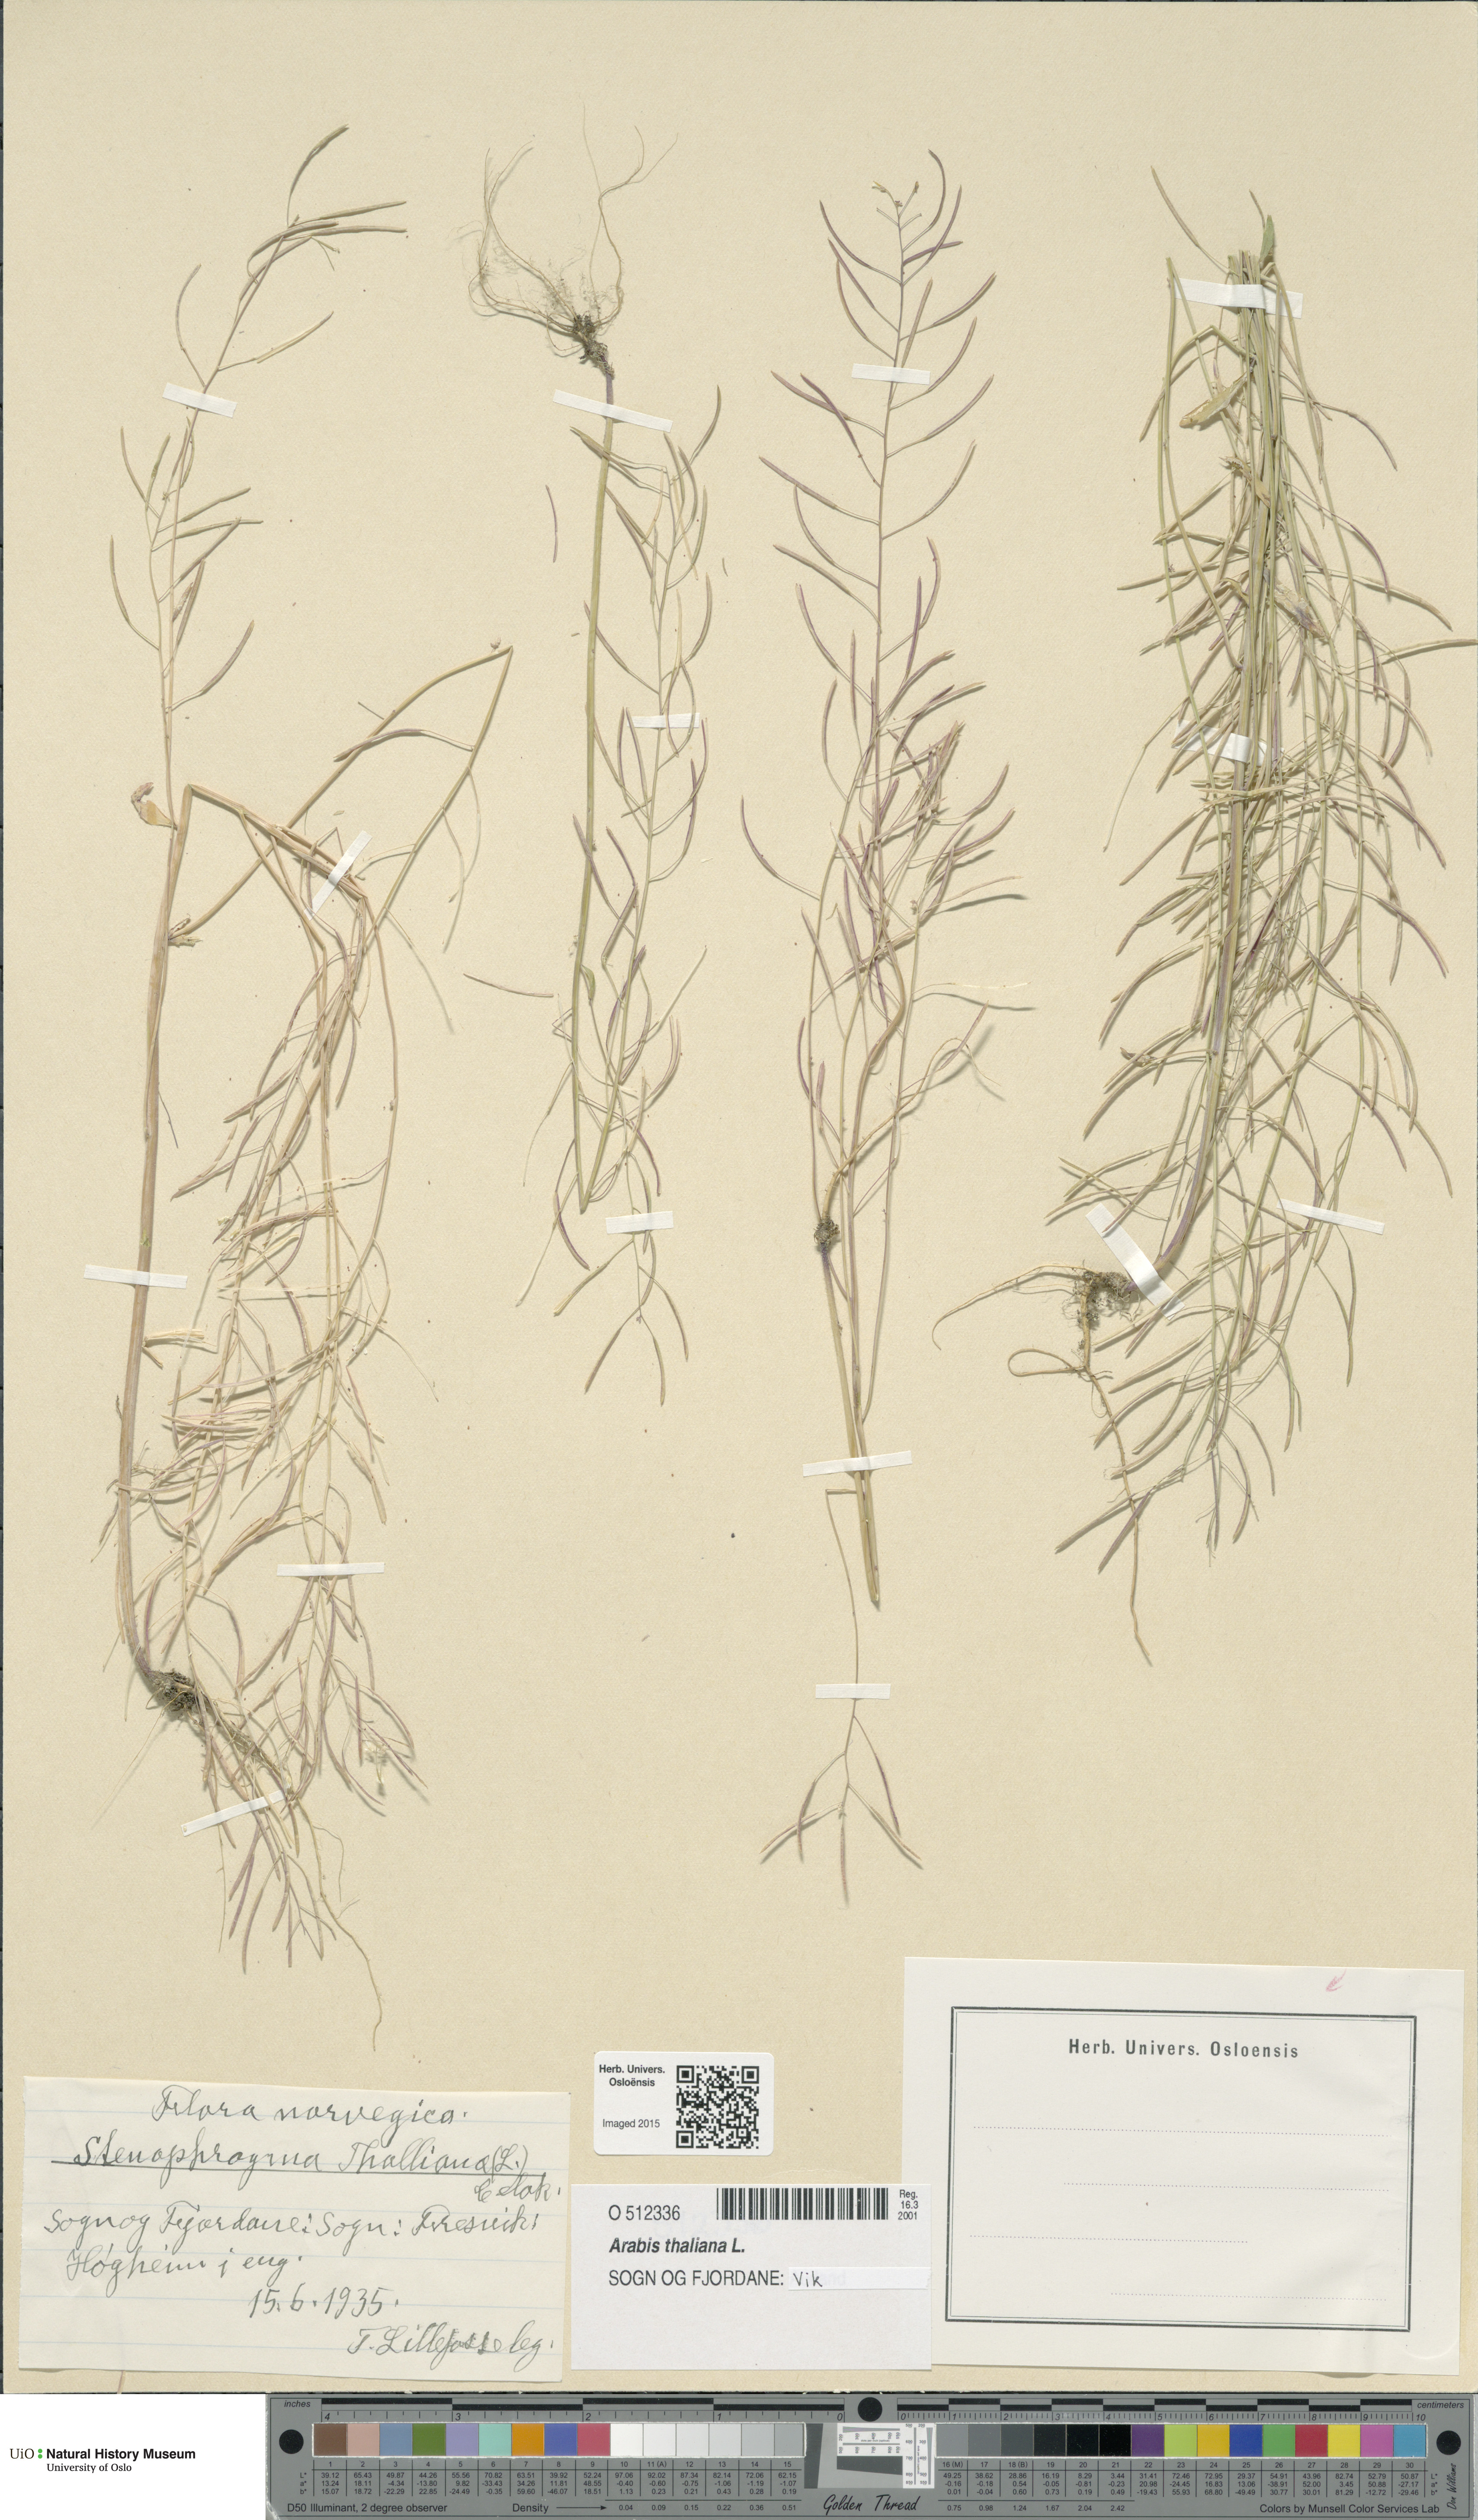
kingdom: Plantae
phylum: Tracheophyta
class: Magnoliopsida
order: Brassicales
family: Brassicaceae
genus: Arabidopsis
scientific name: Arabidopsis thaliana
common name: Thale cress
